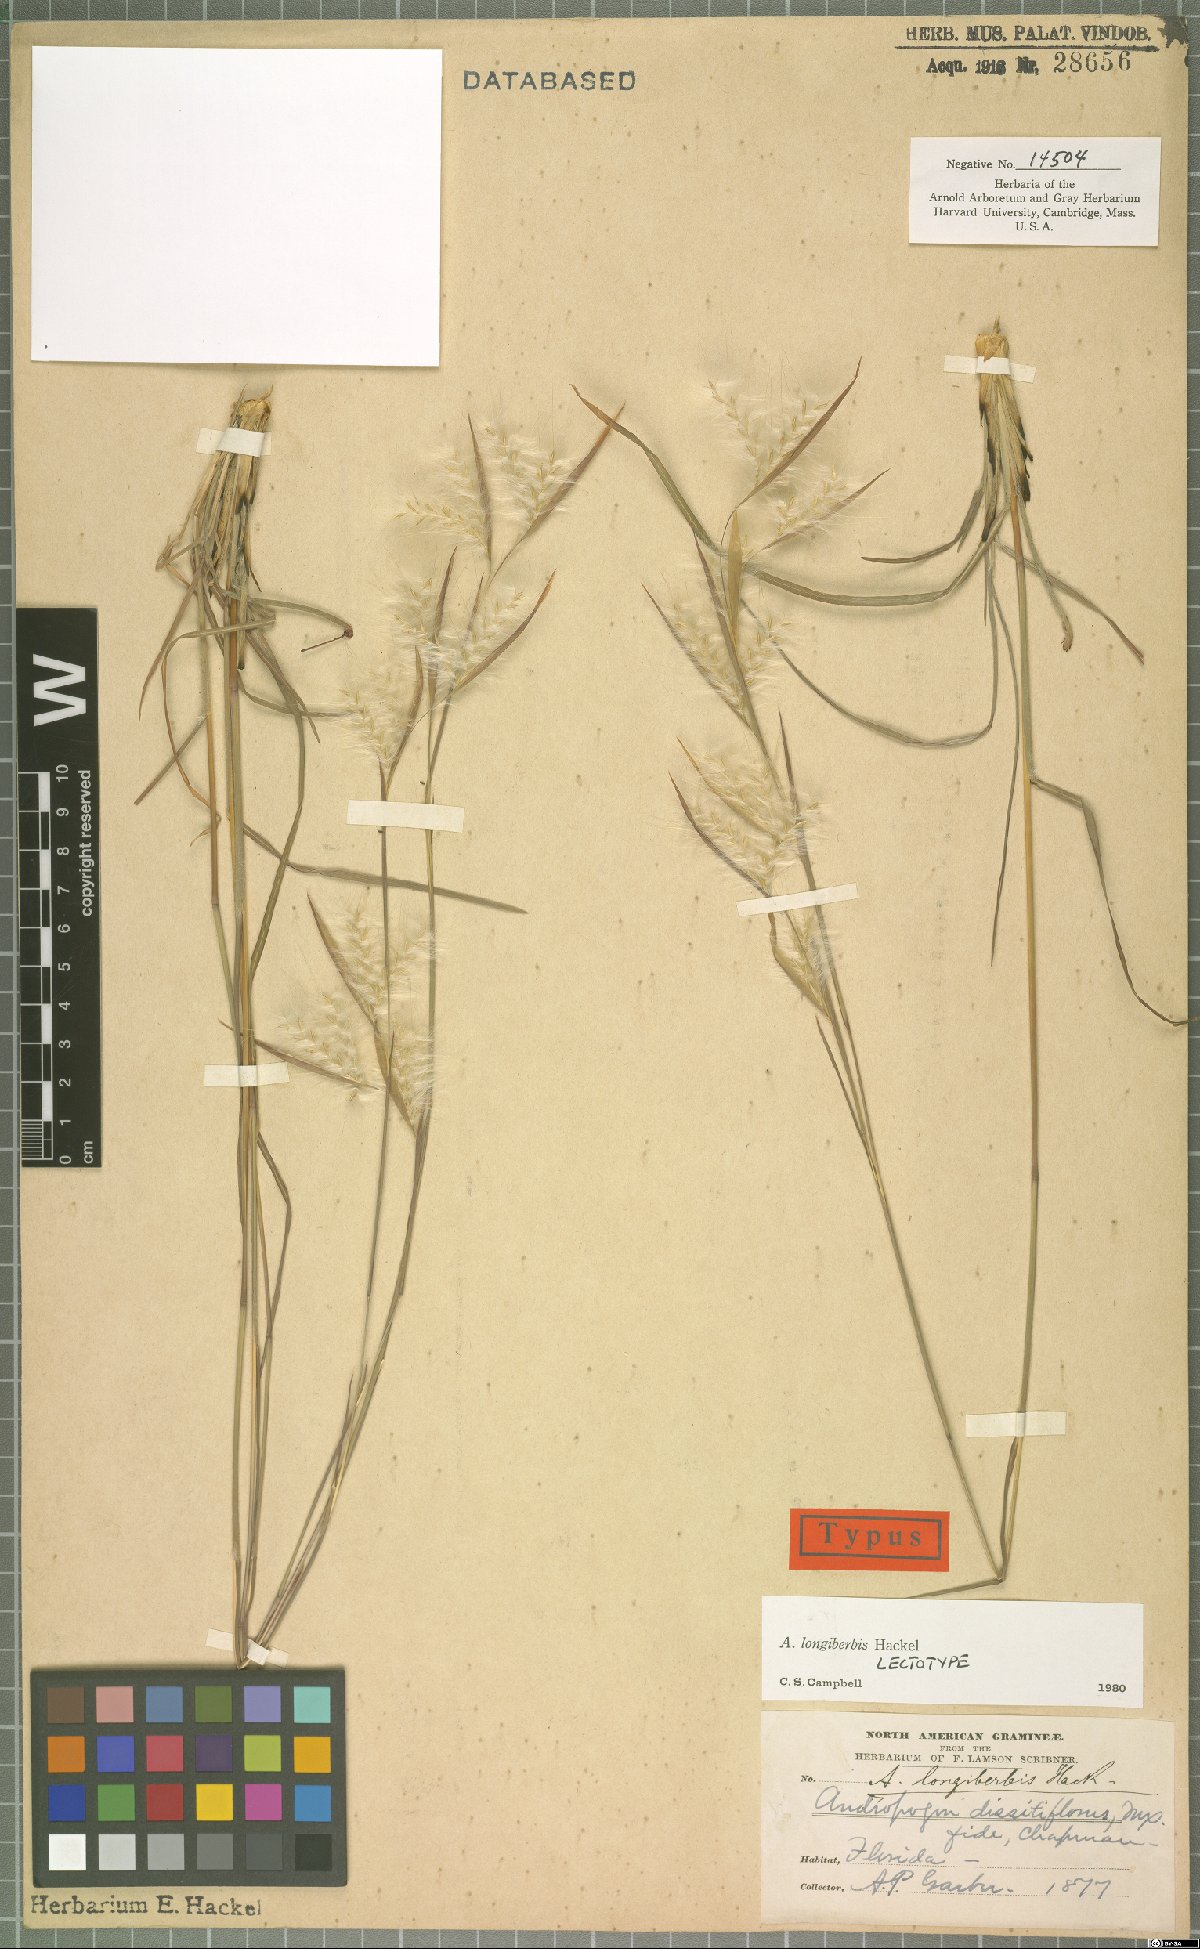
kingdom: Plantae
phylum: Tracheophyta
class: Liliopsida
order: Poales
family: Poaceae
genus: Andropogon
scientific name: Andropogon longiberbis
